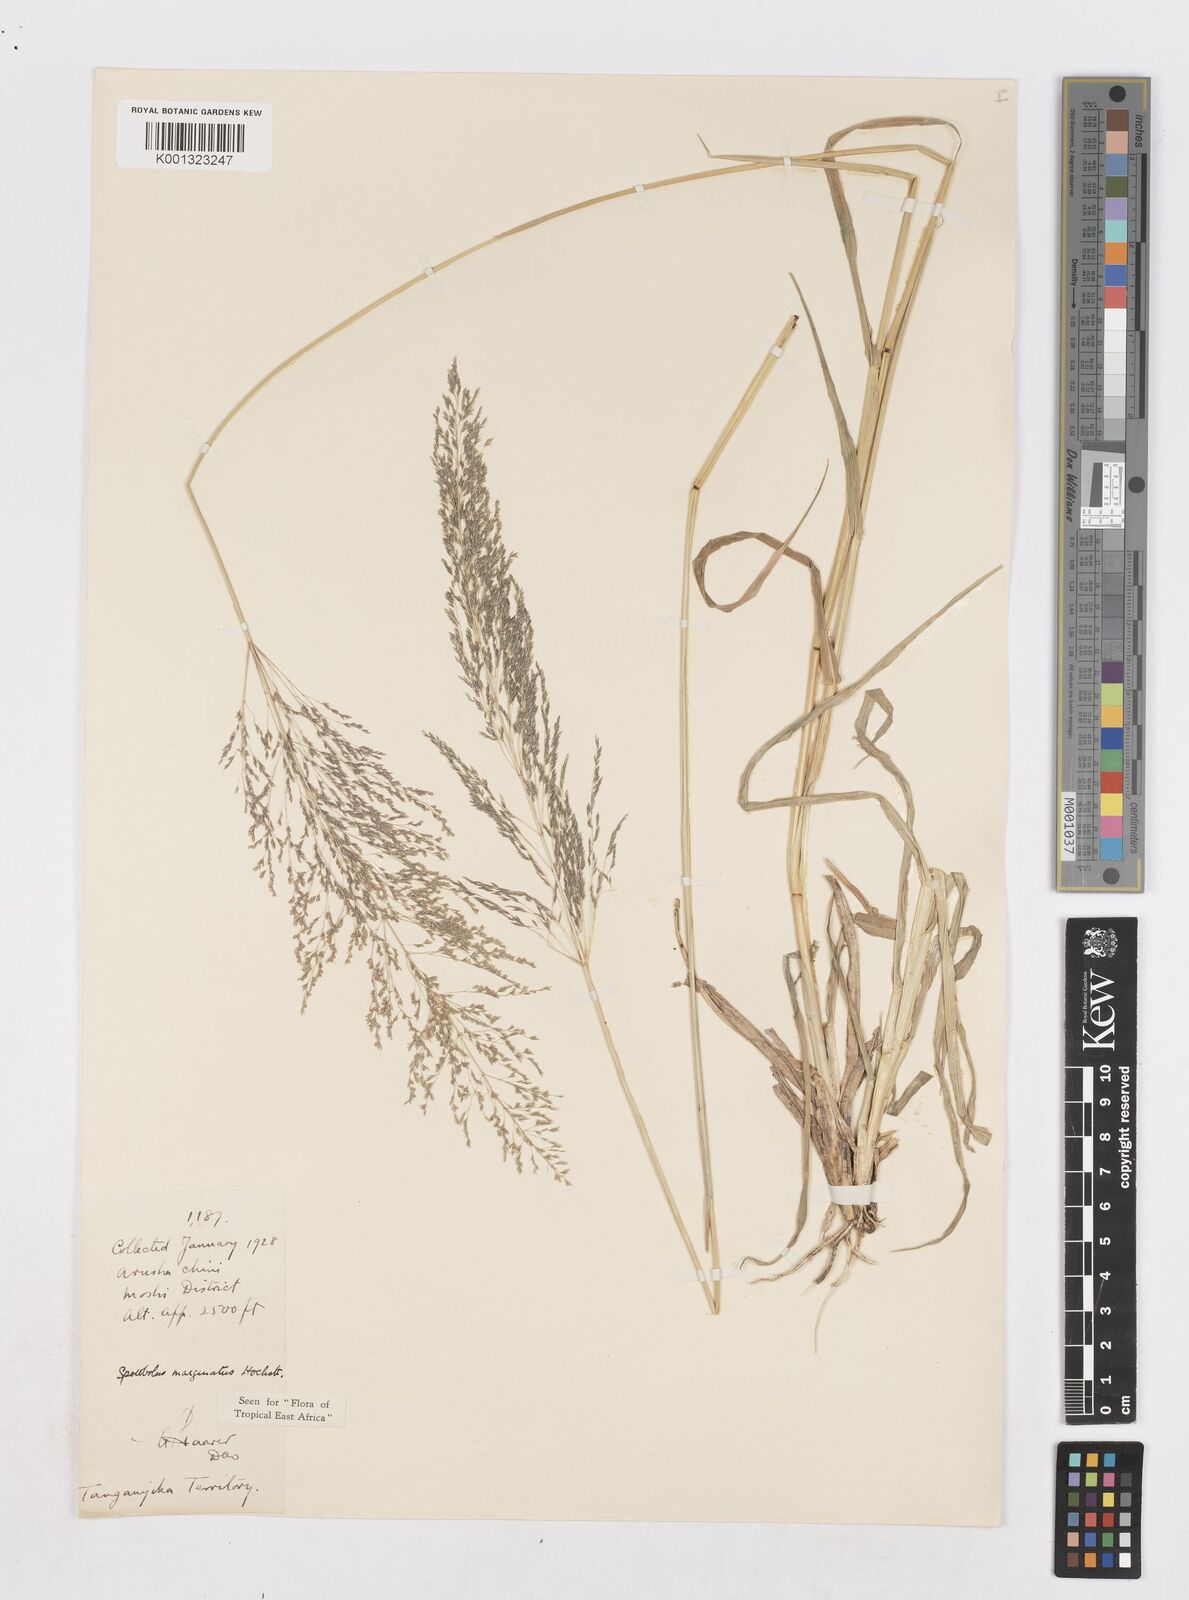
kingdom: Plantae
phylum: Tracheophyta
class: Liliopsida
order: Poales
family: Poaceae
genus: Sporobolus
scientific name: Sporobolus ioclados
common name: Pan dropseed
